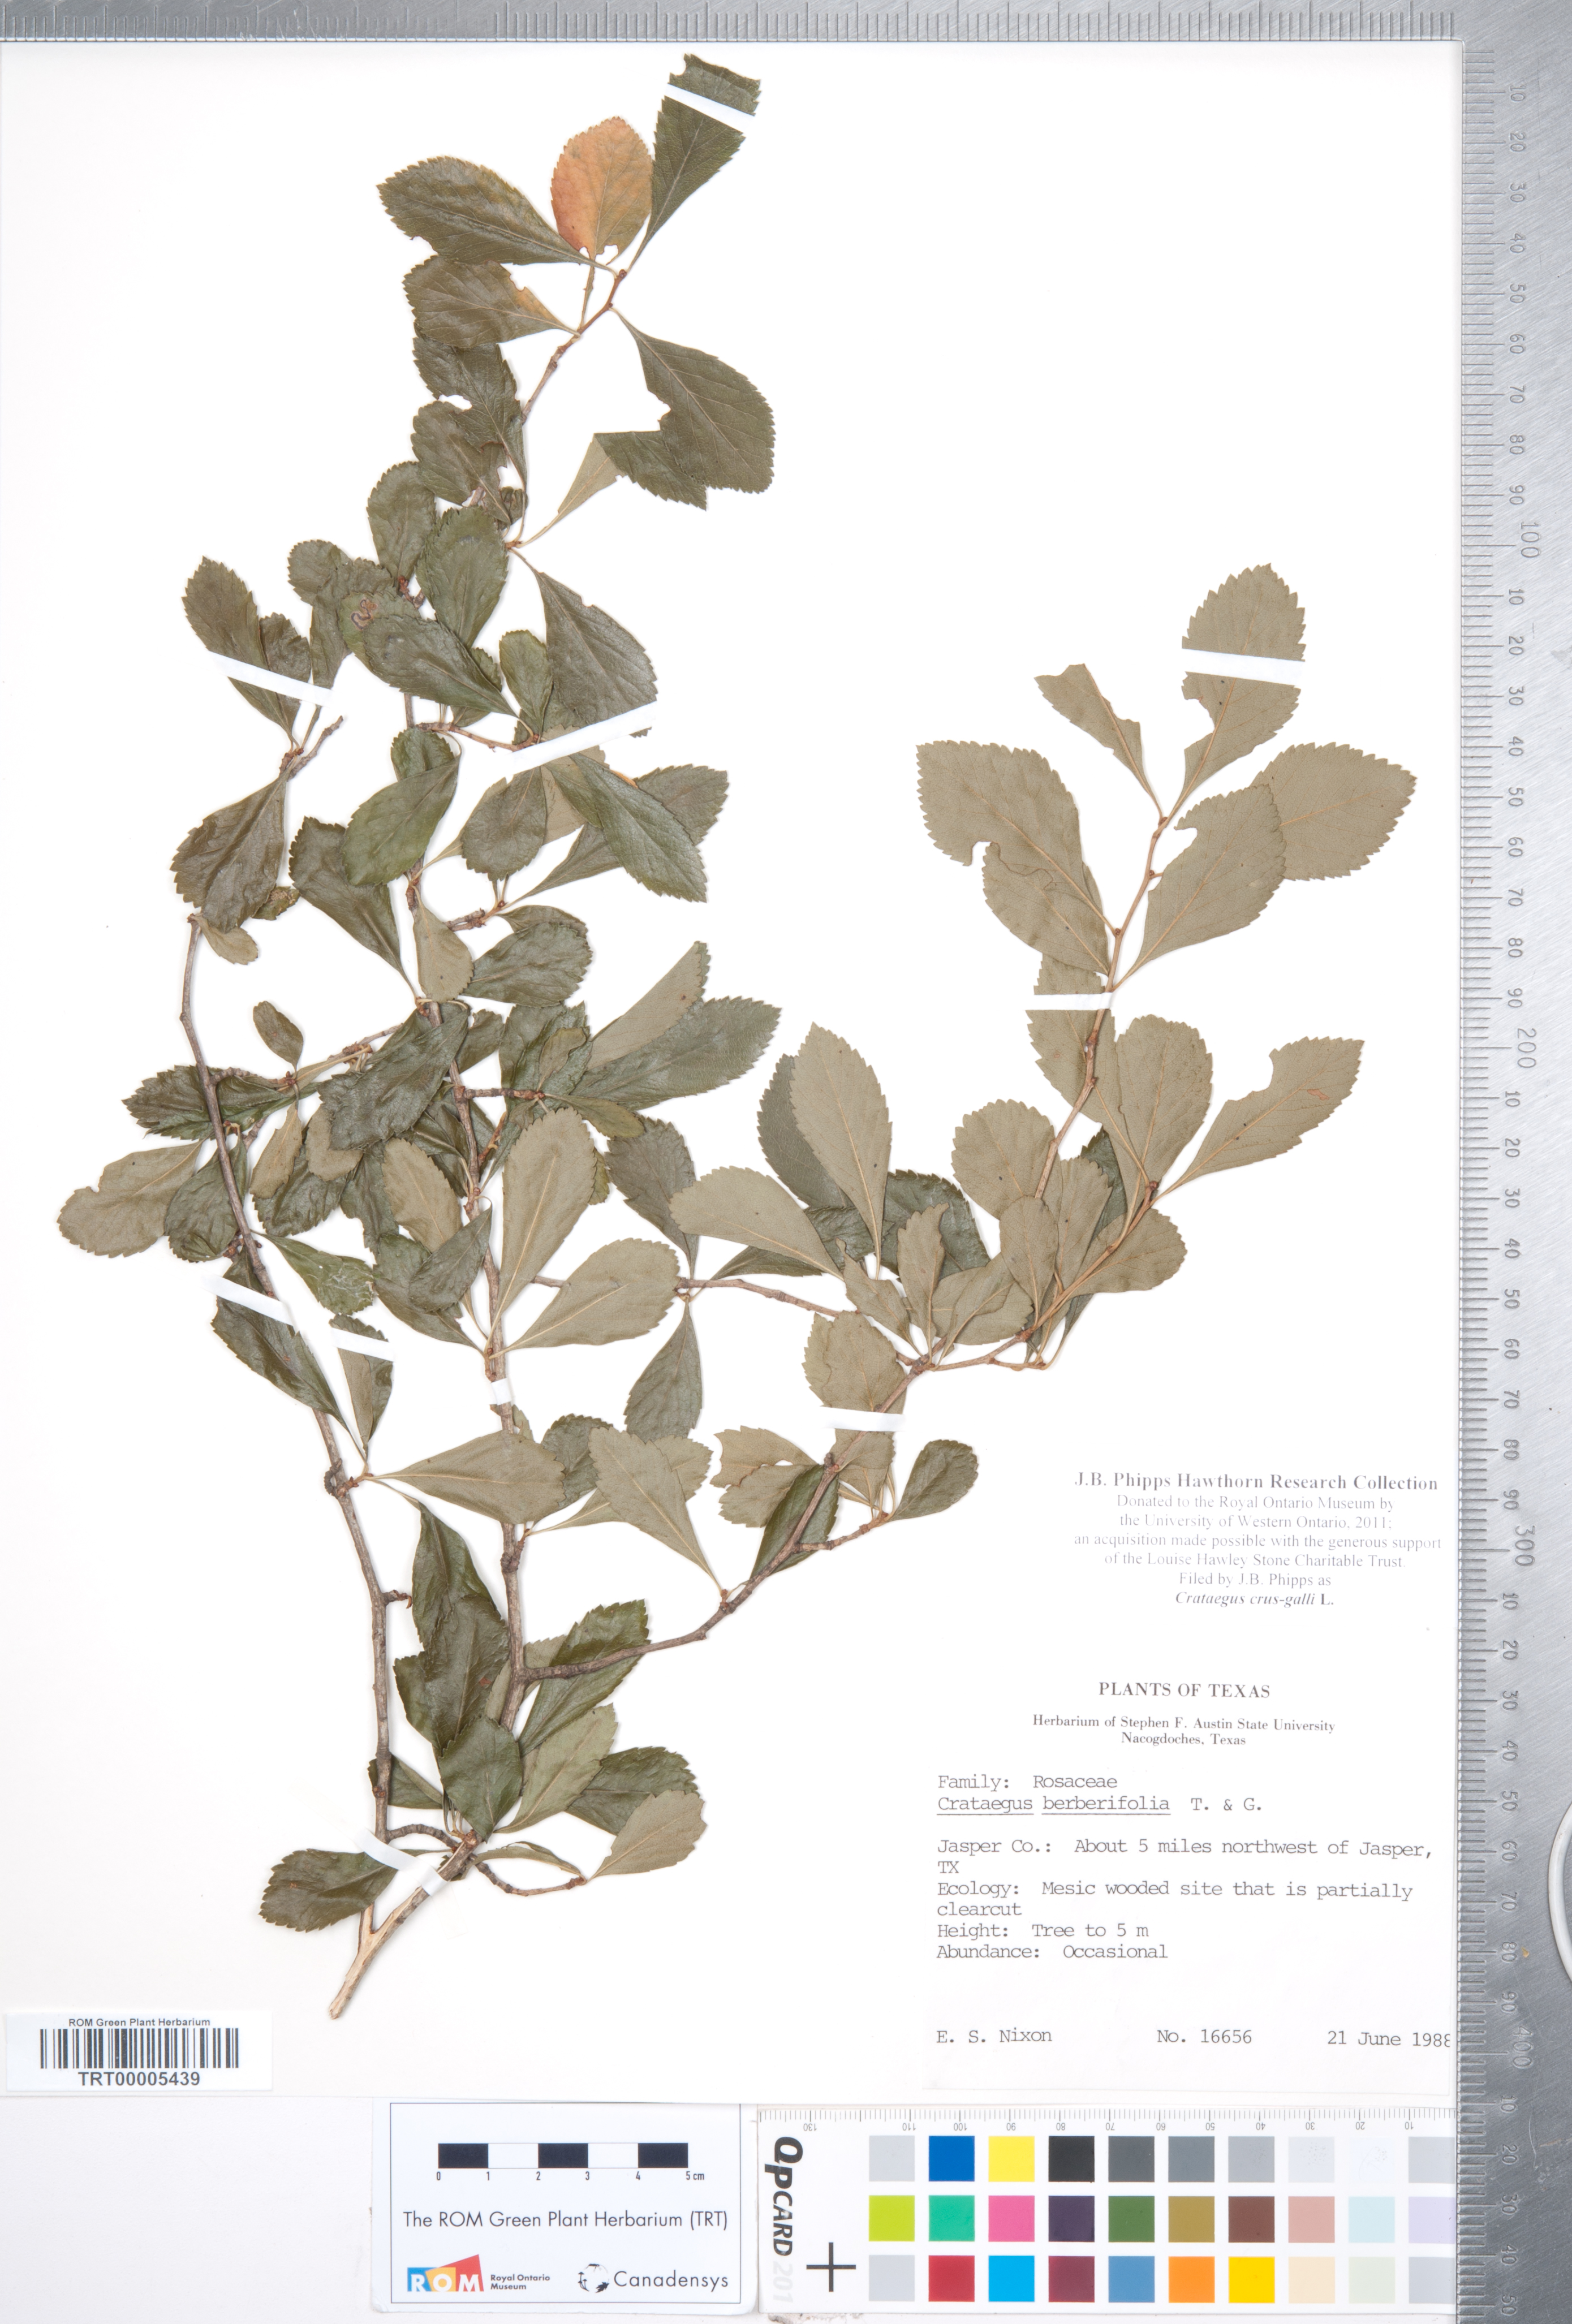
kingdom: Plantae
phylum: Tracheophyta
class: Magnoliopsida
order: Rosales
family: Rosaceae
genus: Crataegus
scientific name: Crataegus crus-galli
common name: Cockspurthorn
